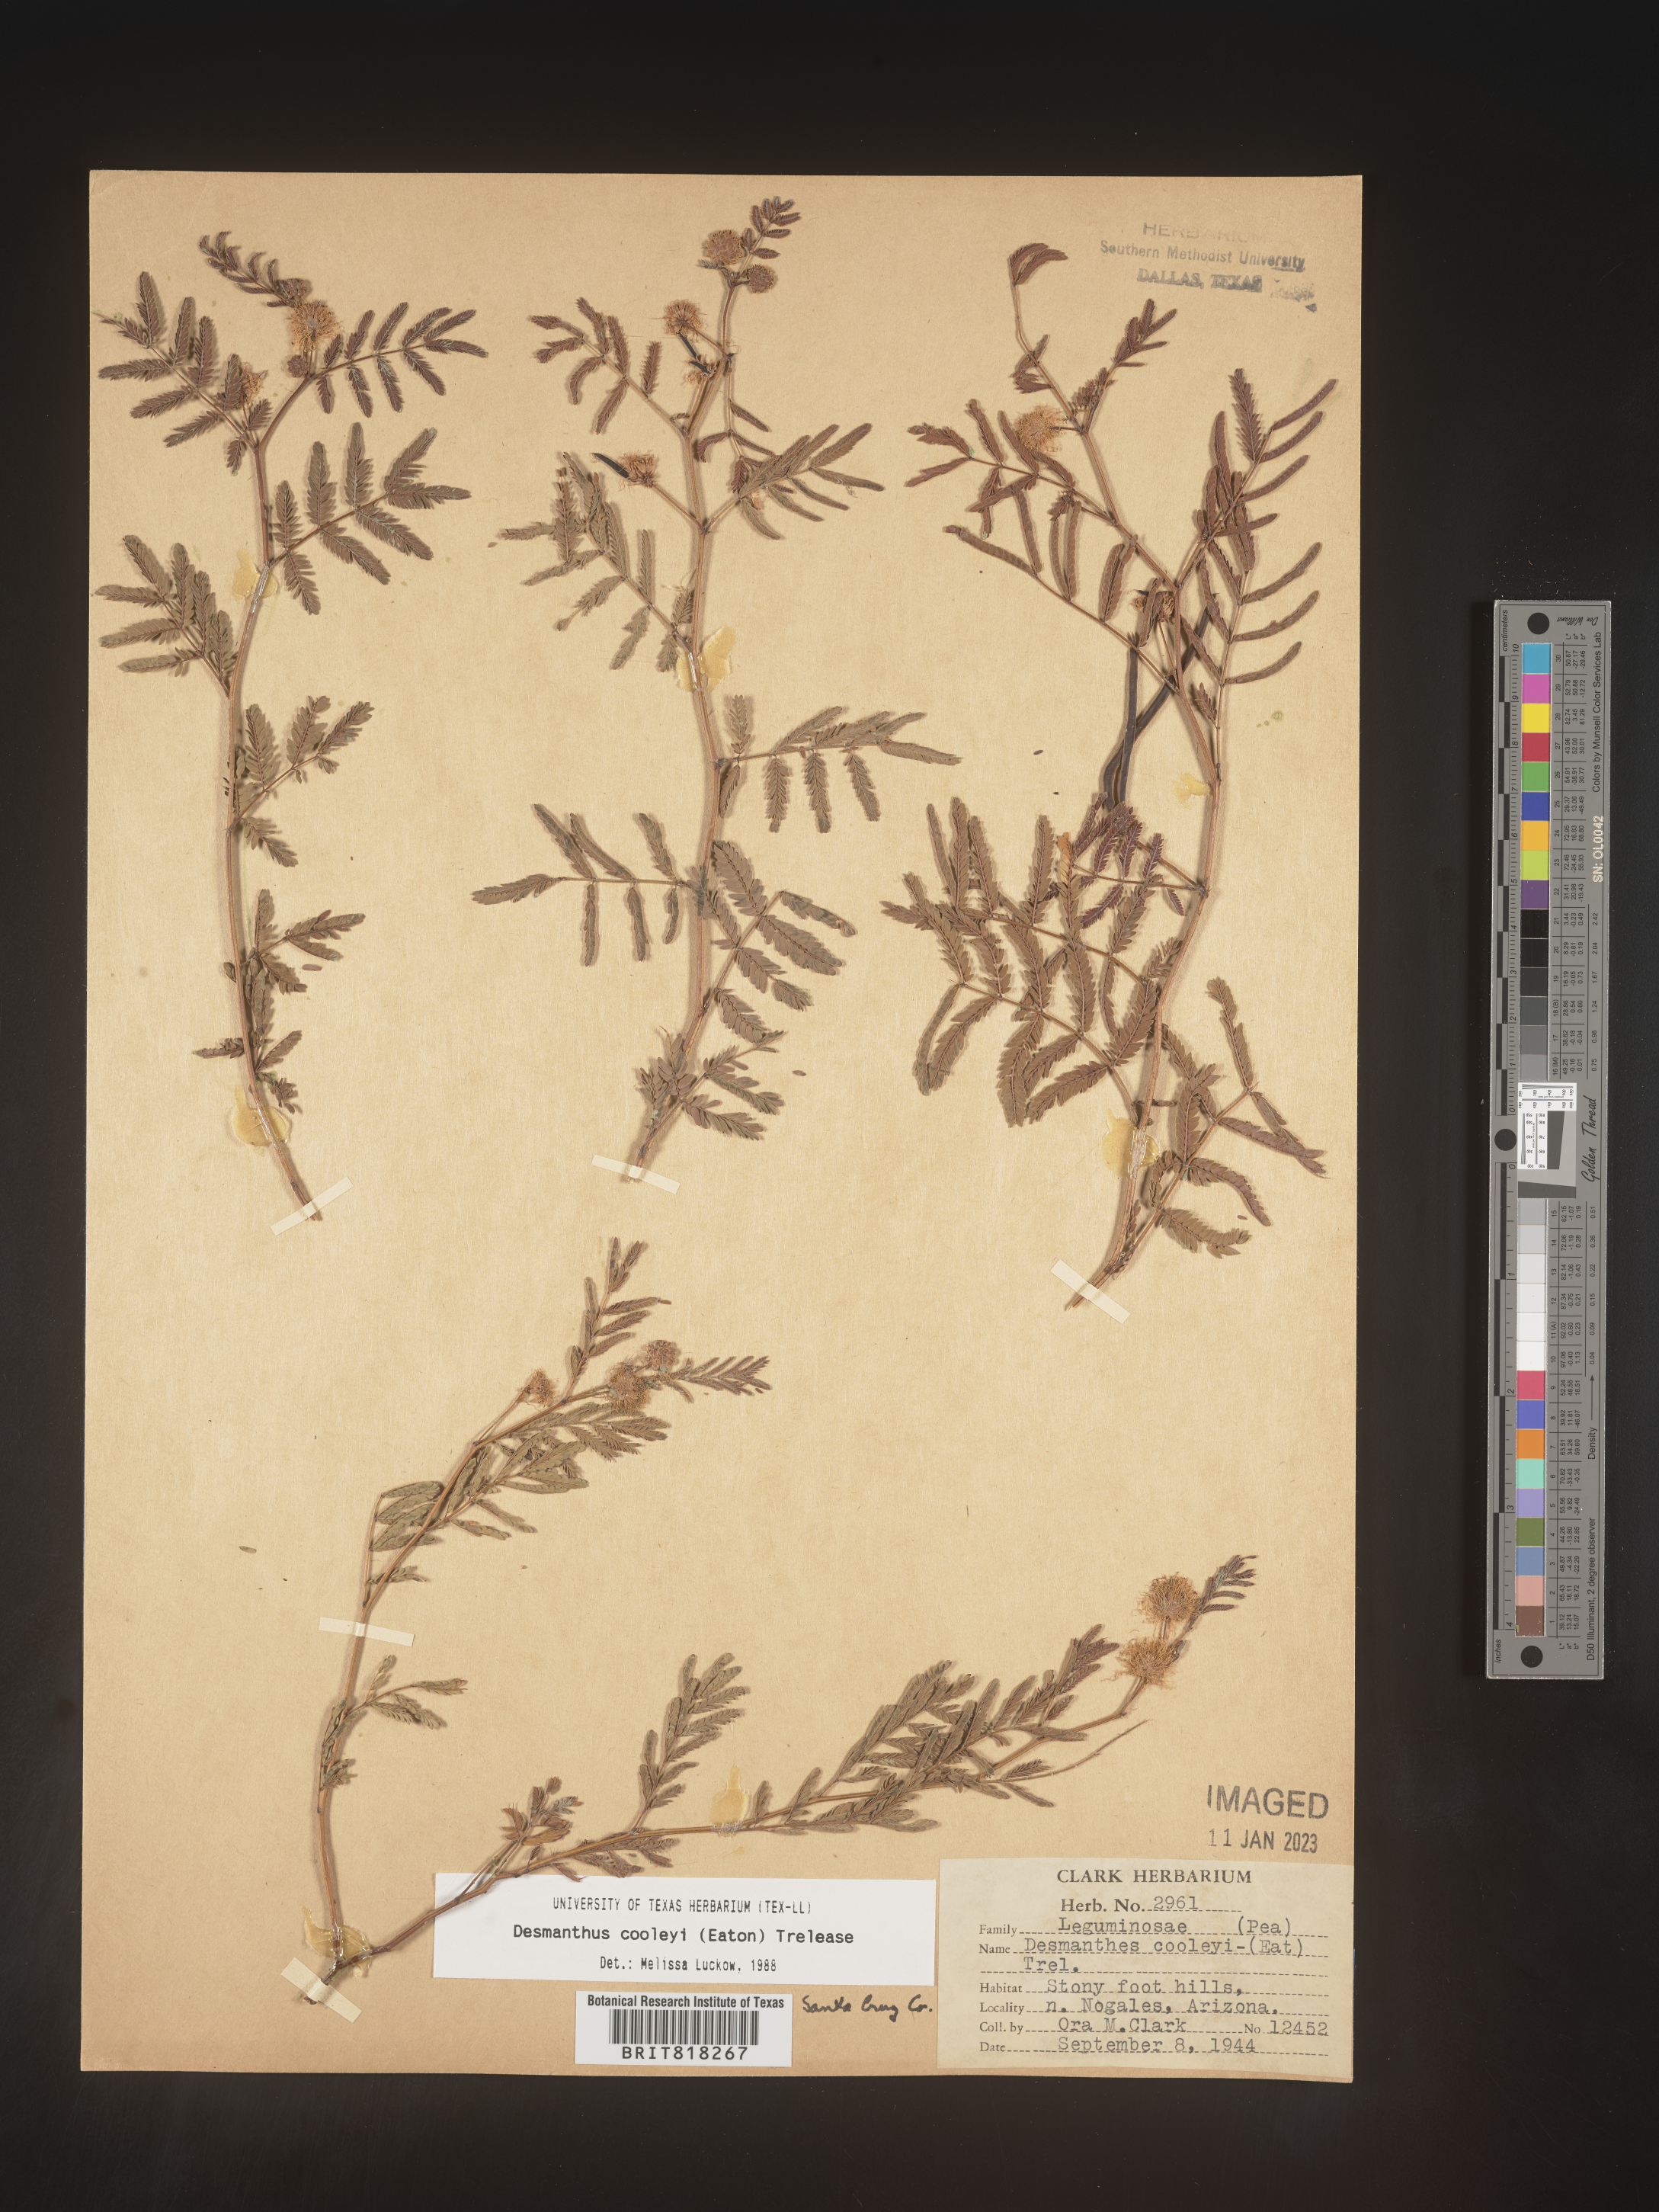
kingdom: Plantae
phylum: Tracheophyta
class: Magnoliopsida
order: Fabales
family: Fabaceae
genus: Desmanthus
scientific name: Desmanthus cooleyi
